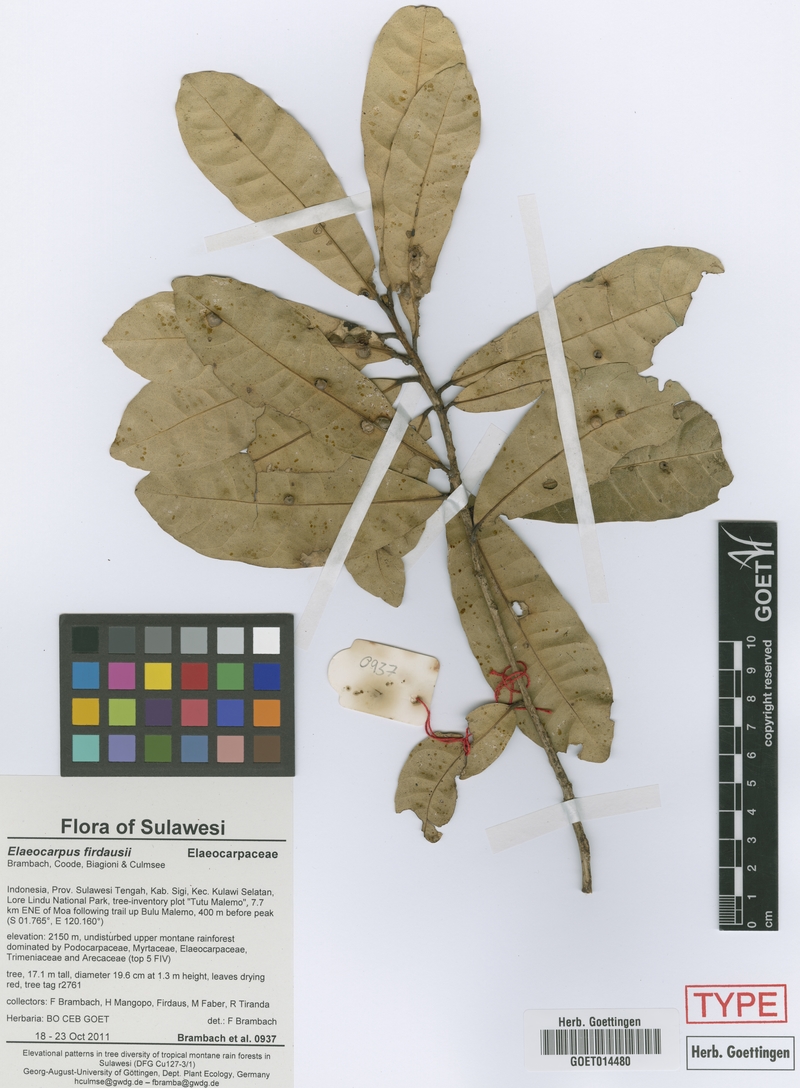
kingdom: Plantae
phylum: Tracheophyta
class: Magnoliopsida
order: Oxalidales
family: Elaeocarpaceae
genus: Elaeocarpus
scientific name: Elaeocarpus firdausii
